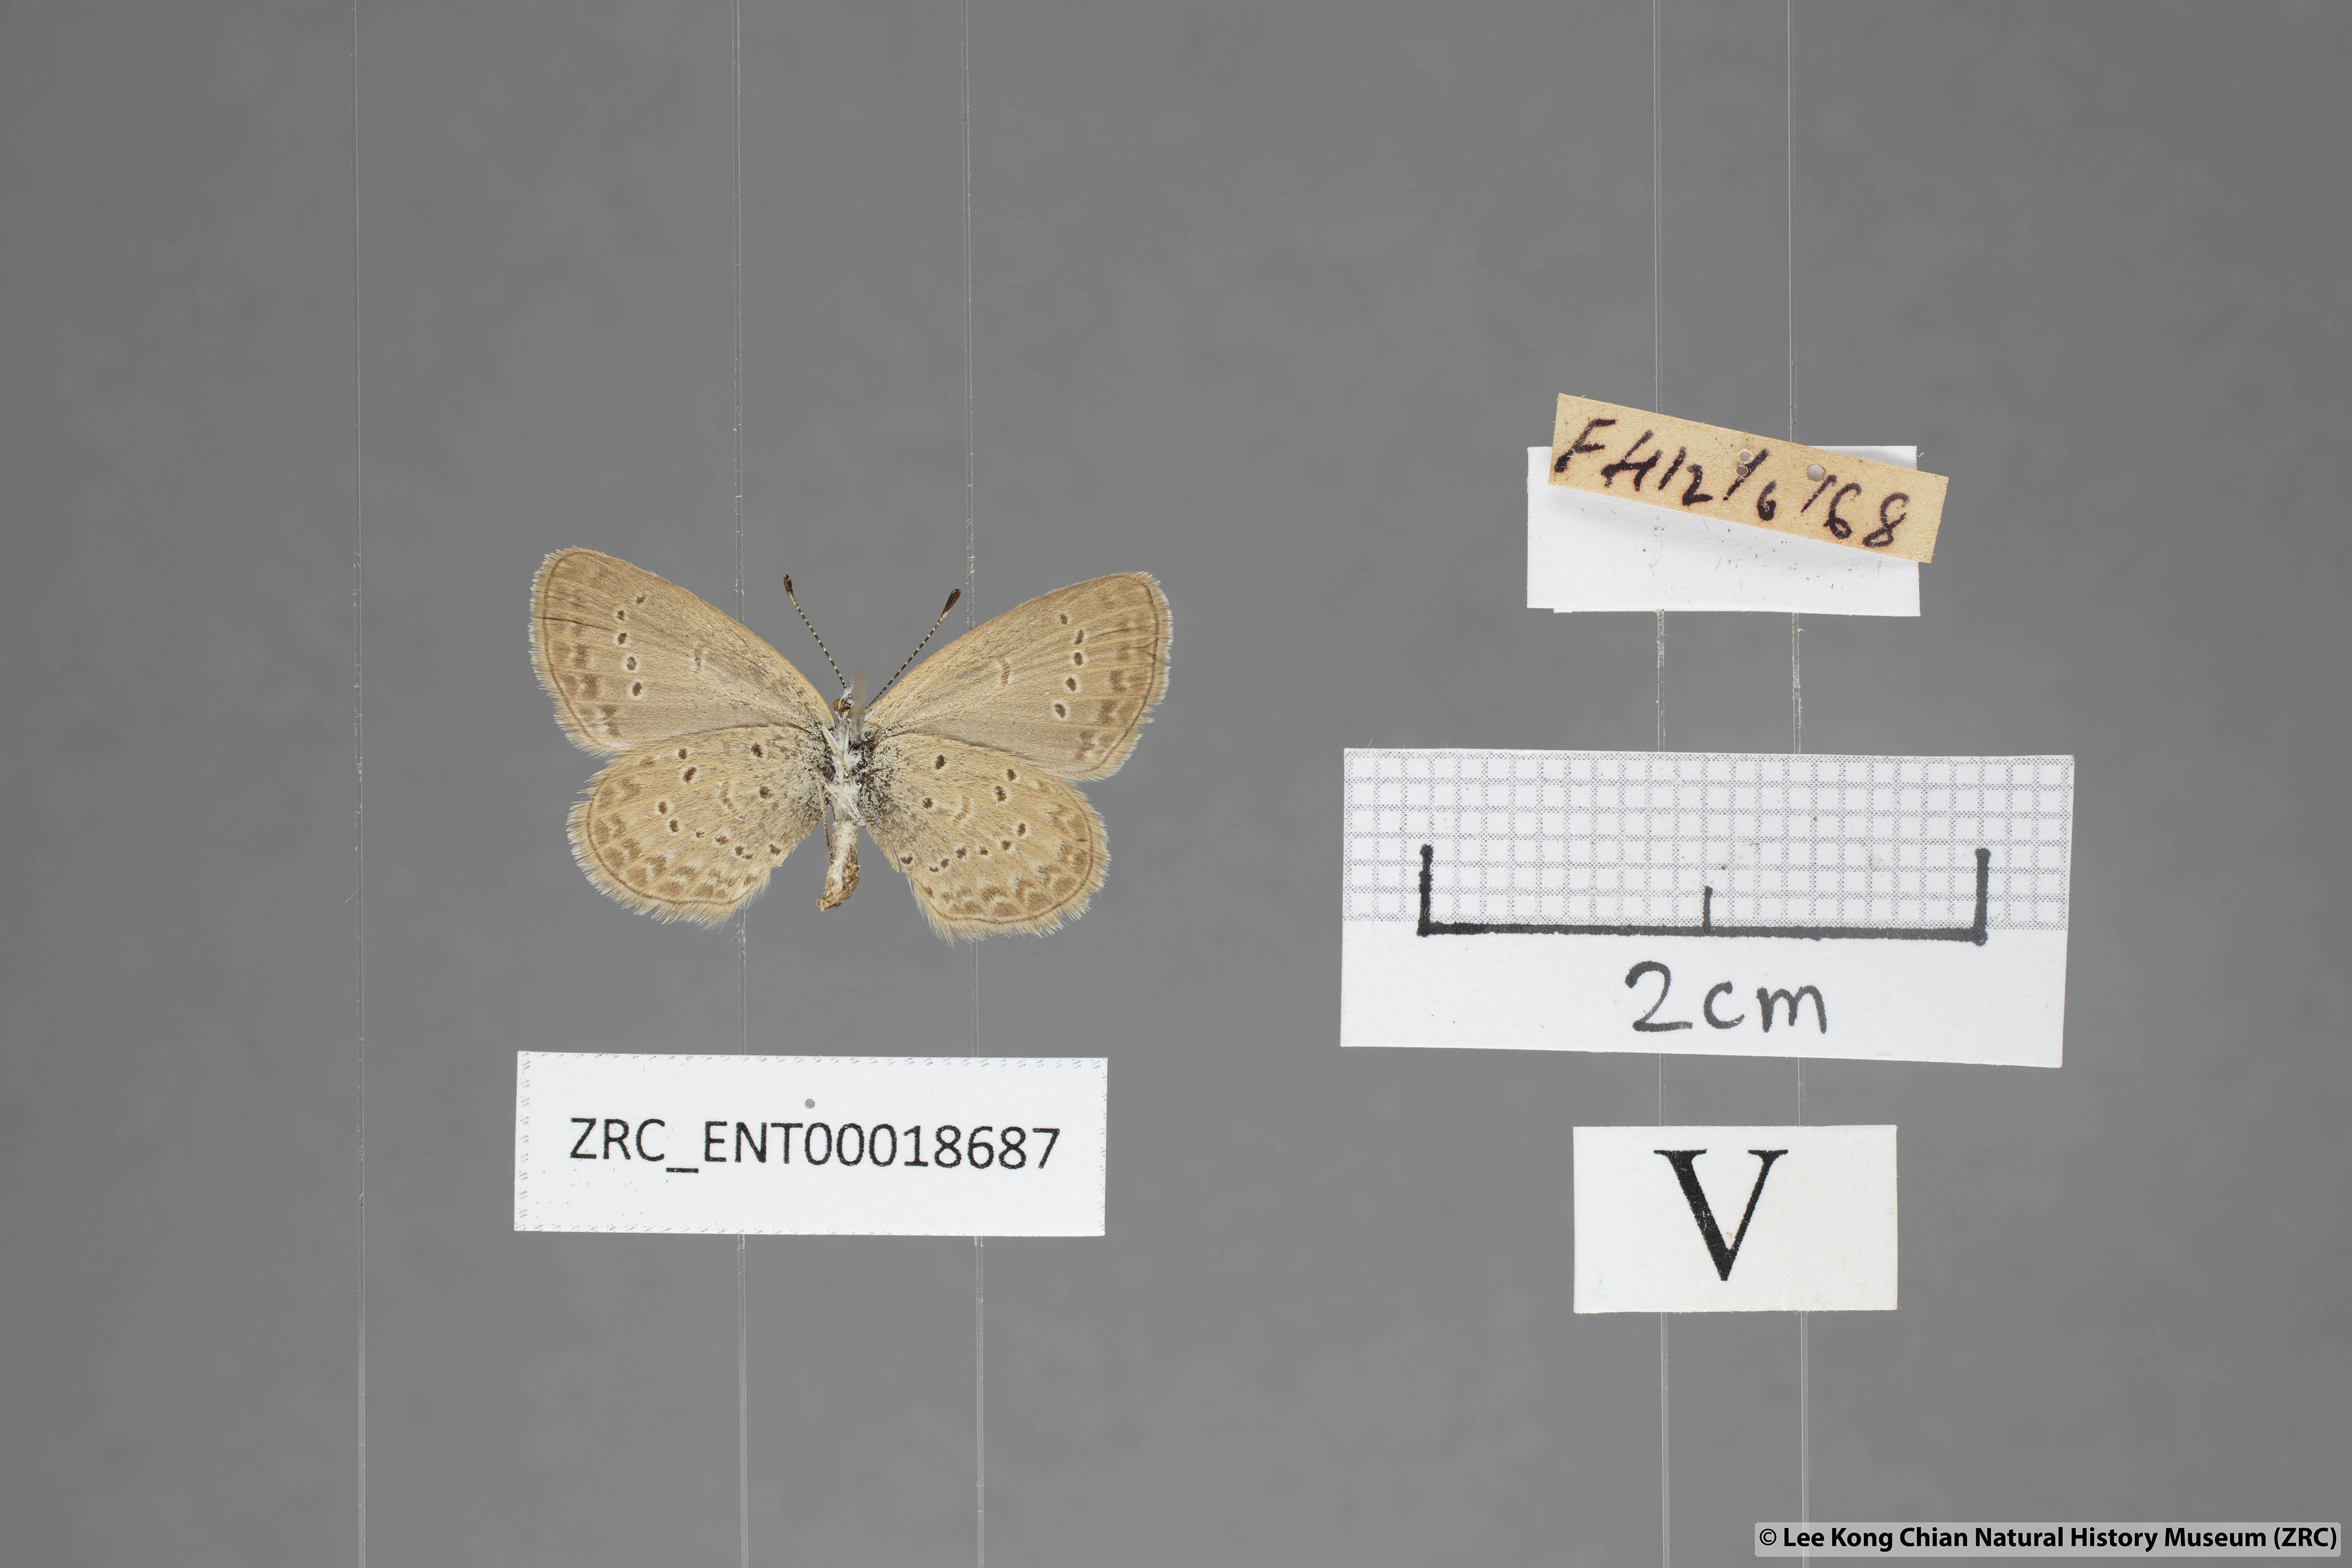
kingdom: Animalia
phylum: Arthropoda
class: Insecta
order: Lepidoptera
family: Lycaenidae
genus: Zizina
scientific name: Zizina otis
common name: Lesser grass blue
